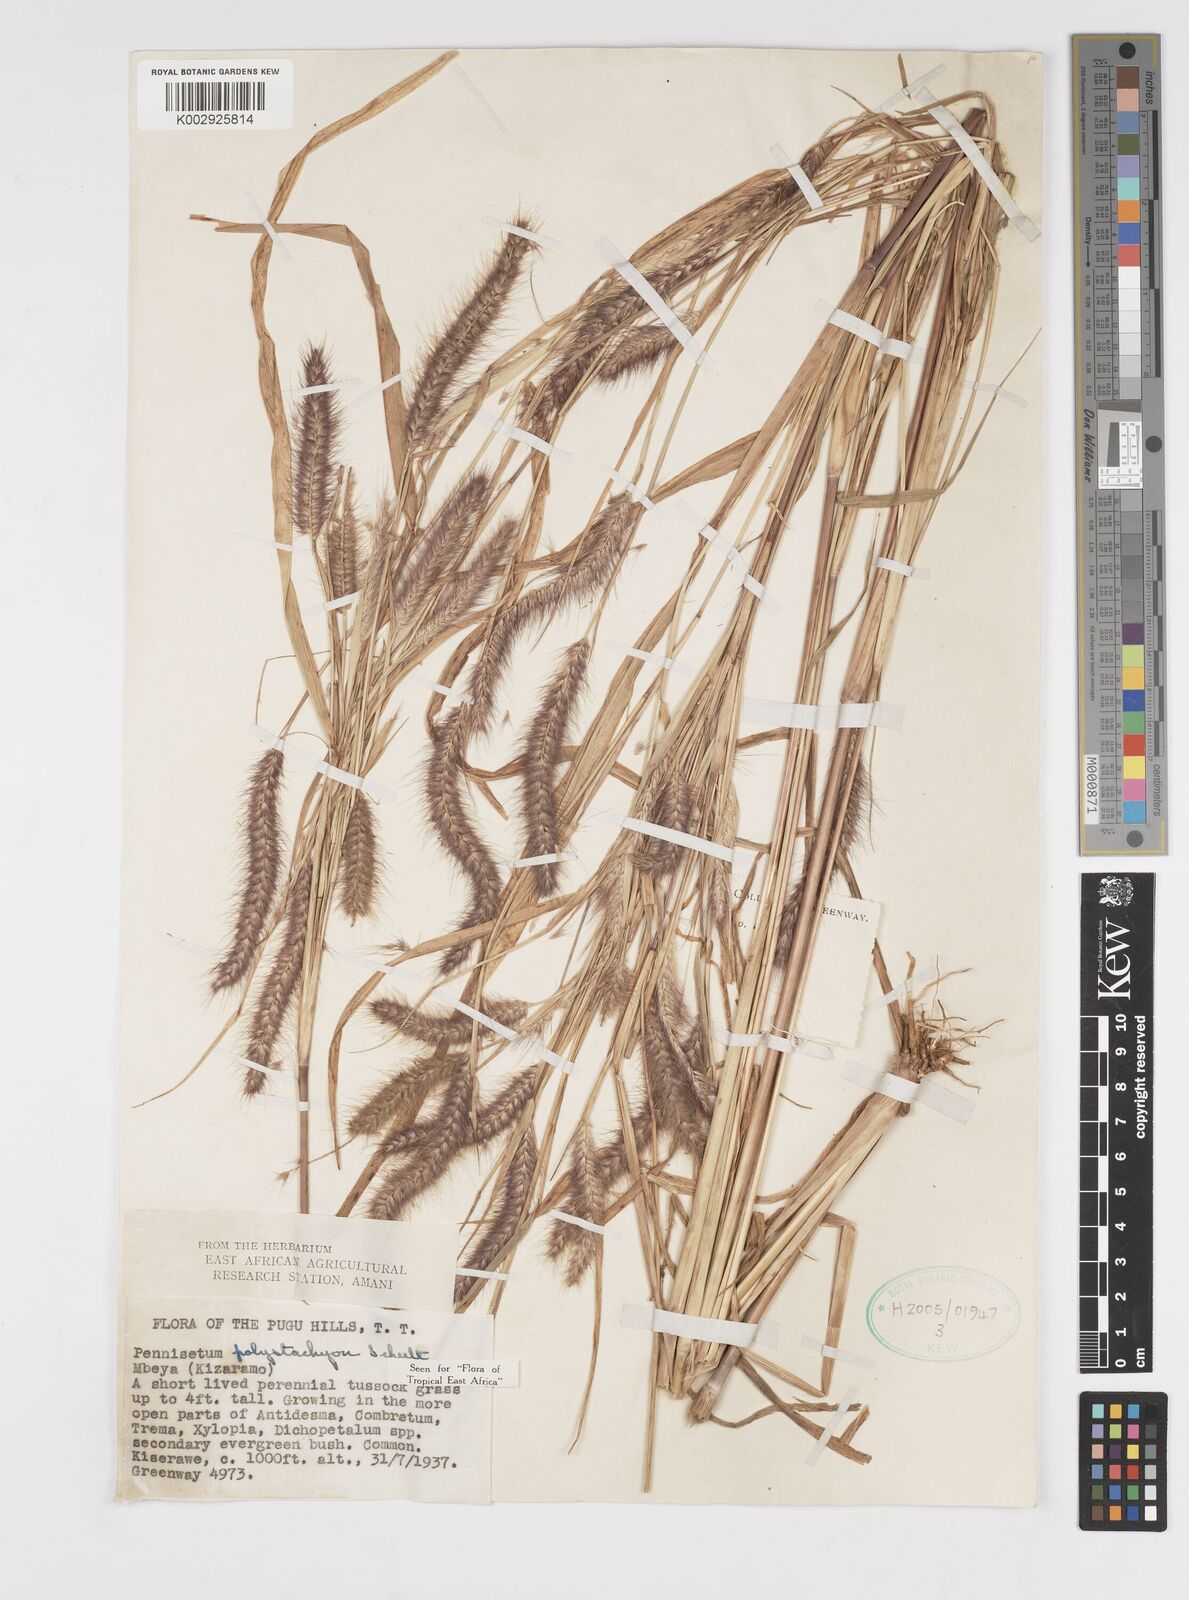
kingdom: Plantae
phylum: Tracheophyta
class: Liliopsida
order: Poales
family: Poaceae
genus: Setaria
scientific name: Setaria parviflora
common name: Knotroot bristle-grass
